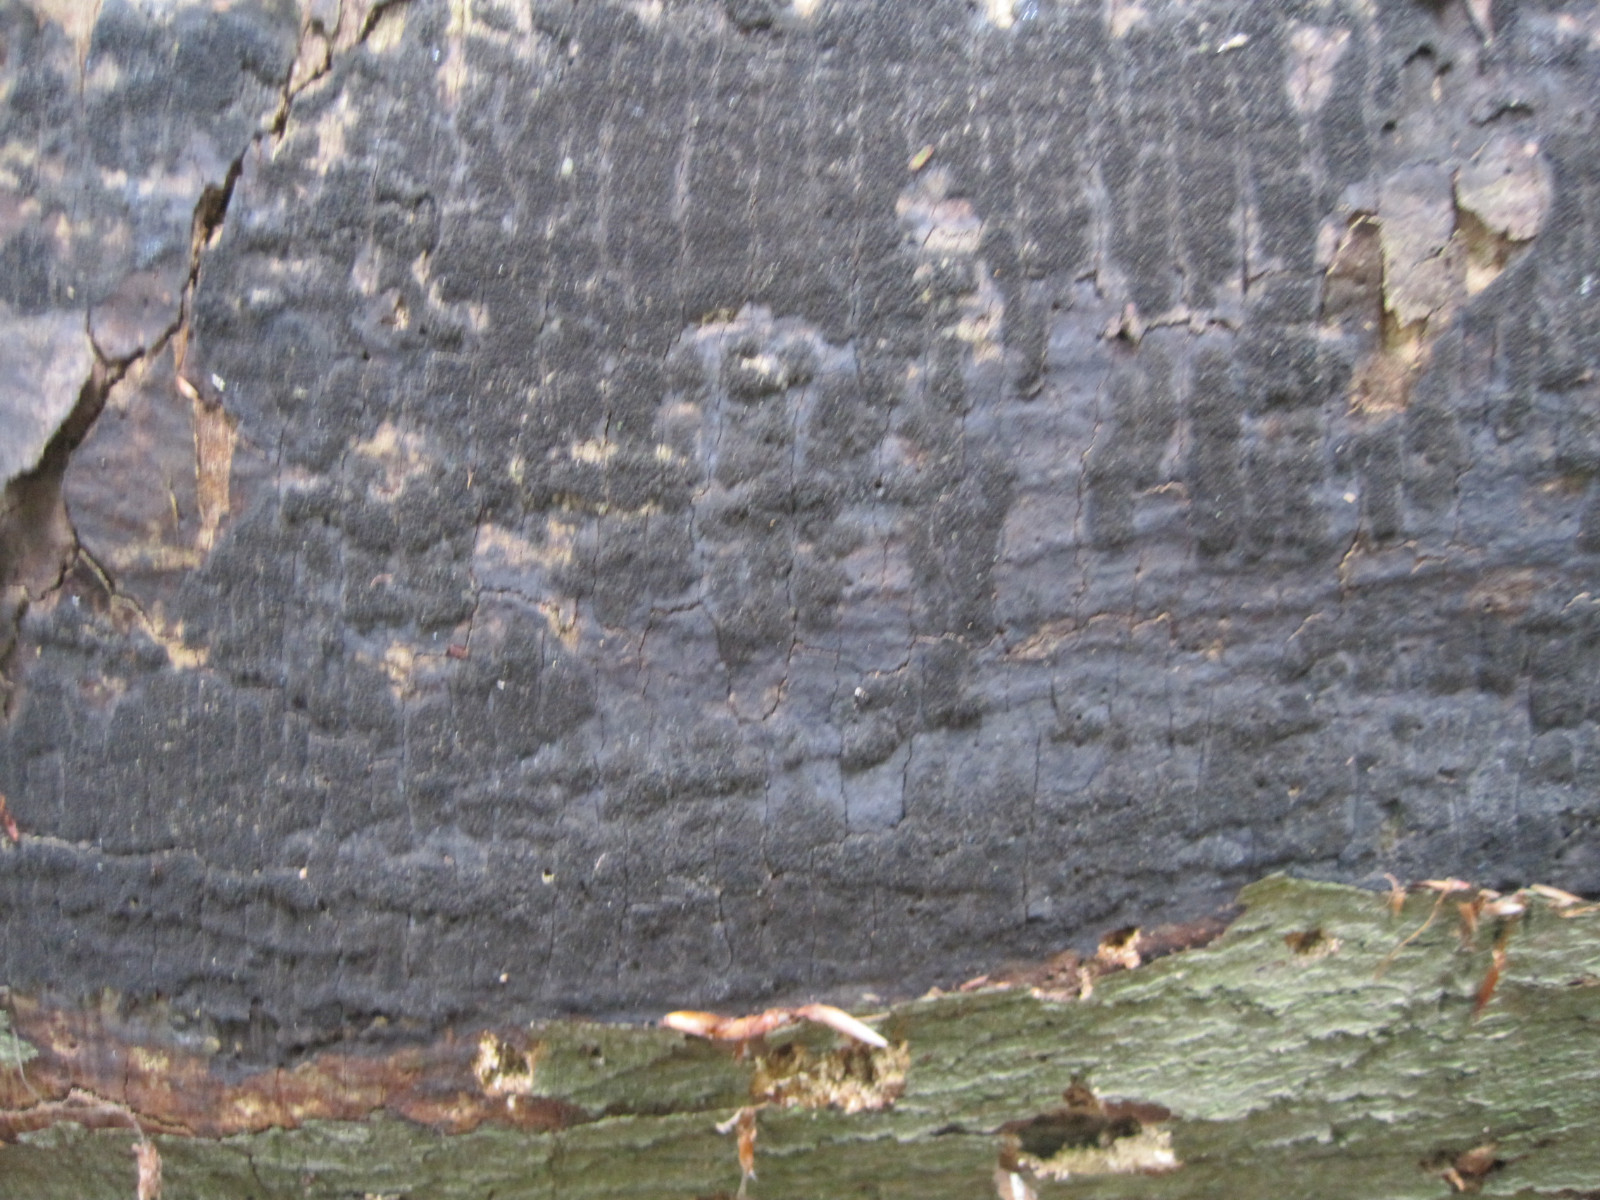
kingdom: Fungi
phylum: Ascomycota
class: Sordariomycetes
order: Xylariales
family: Diatrypaceae
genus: Eutypa
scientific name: Eutypa spinosa
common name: grov kulskorpe
